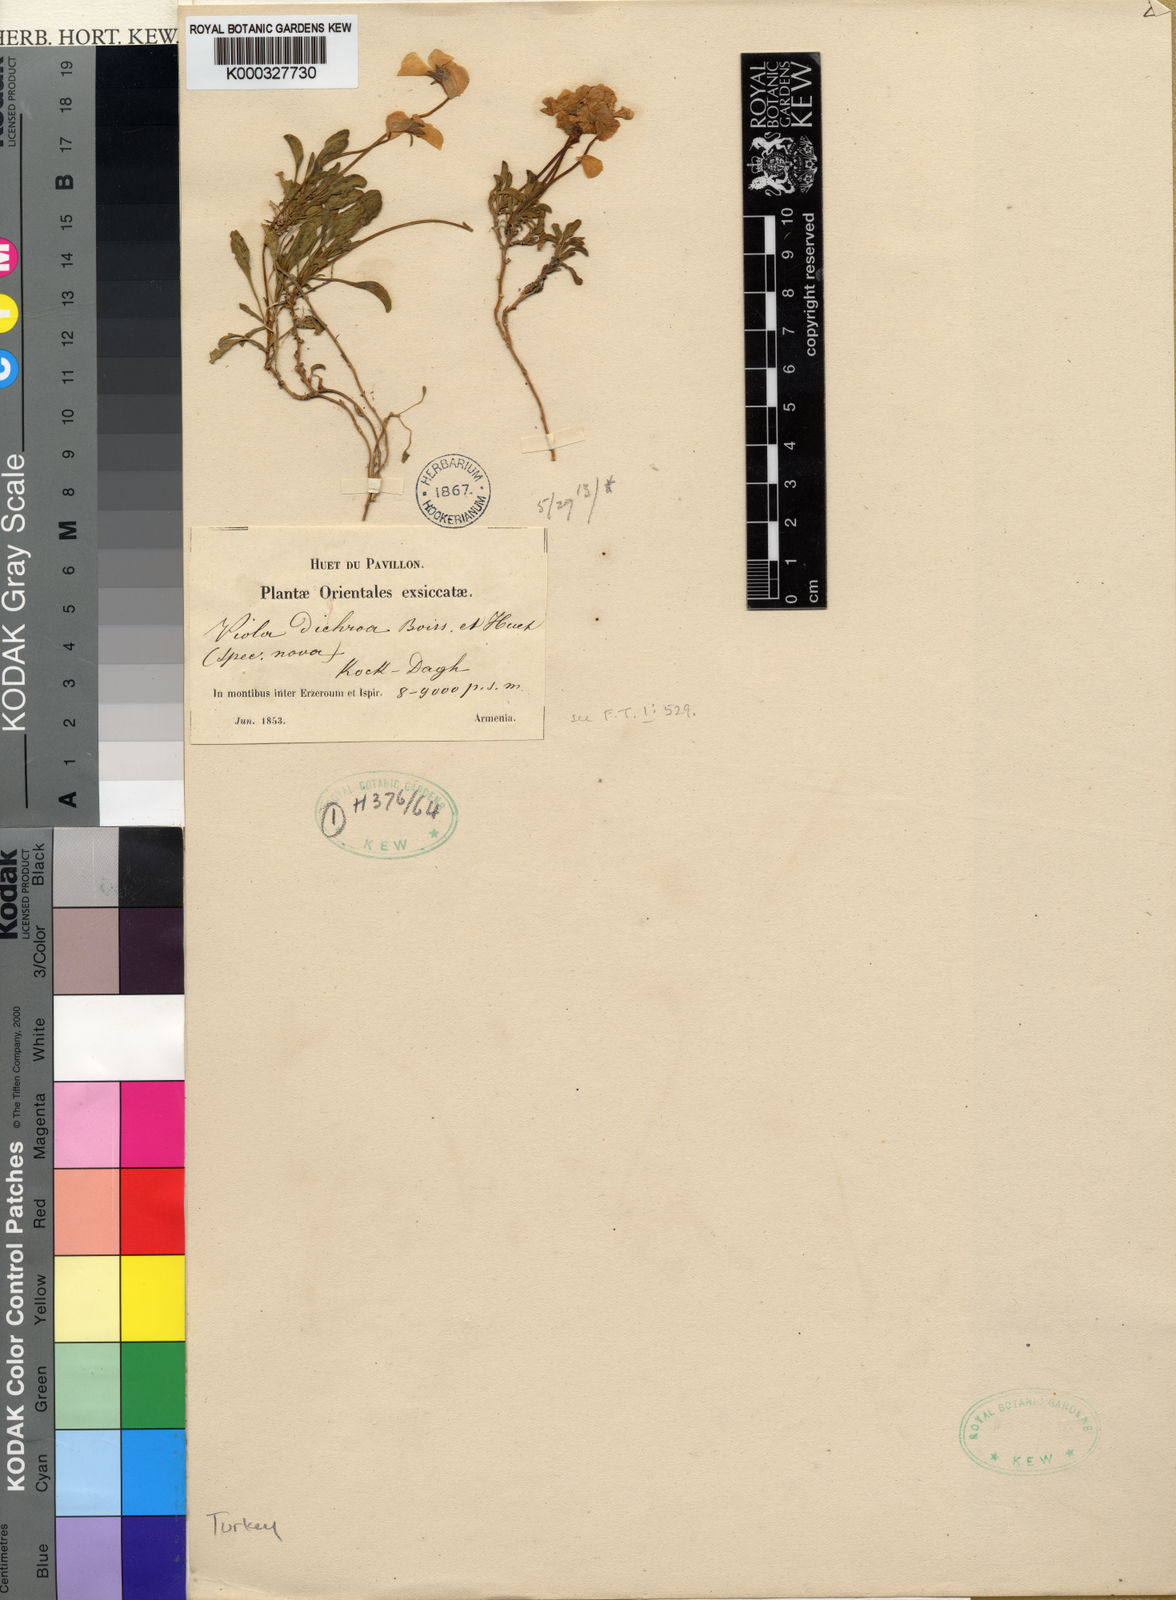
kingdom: Plantae
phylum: Tracheophyta
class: Magnoliopsida
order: Malpighiales
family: Violaceae
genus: Viola
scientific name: Viola dichroa
